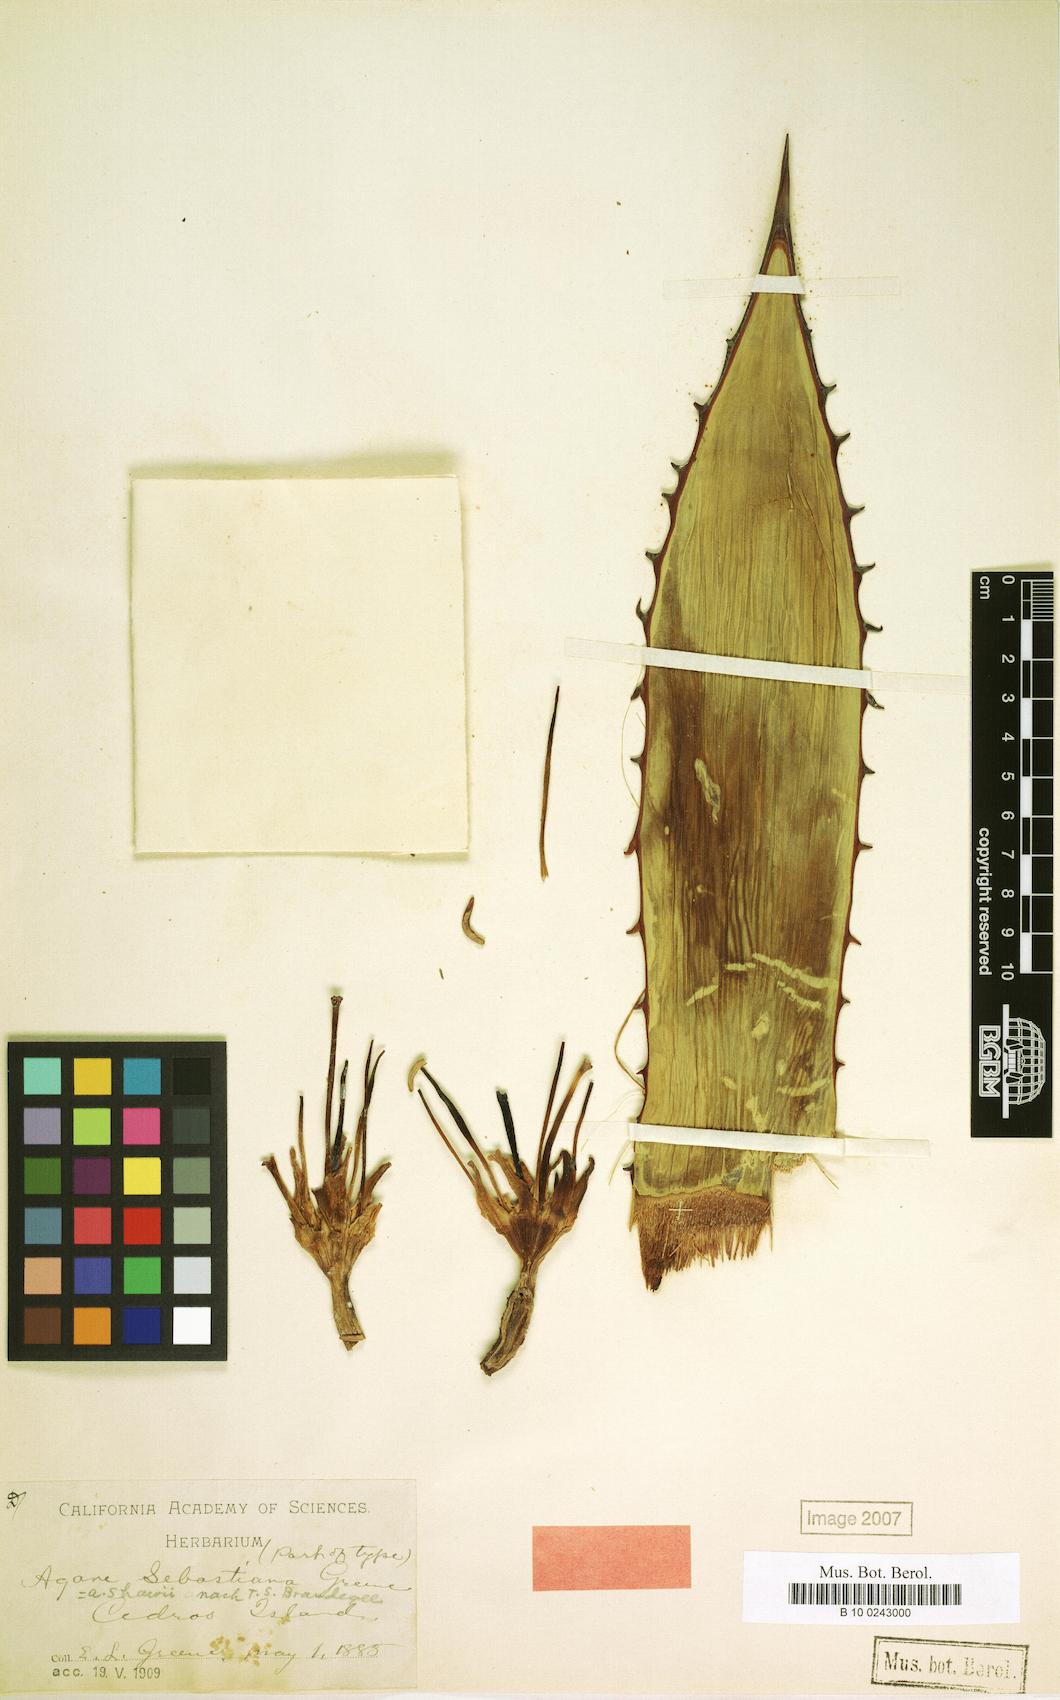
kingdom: Plantae
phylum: Tracheophyta
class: Liliopsida
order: Asparagales
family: Asparagaceae
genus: Agave
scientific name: Agave sebastiana
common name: Cedros agave
